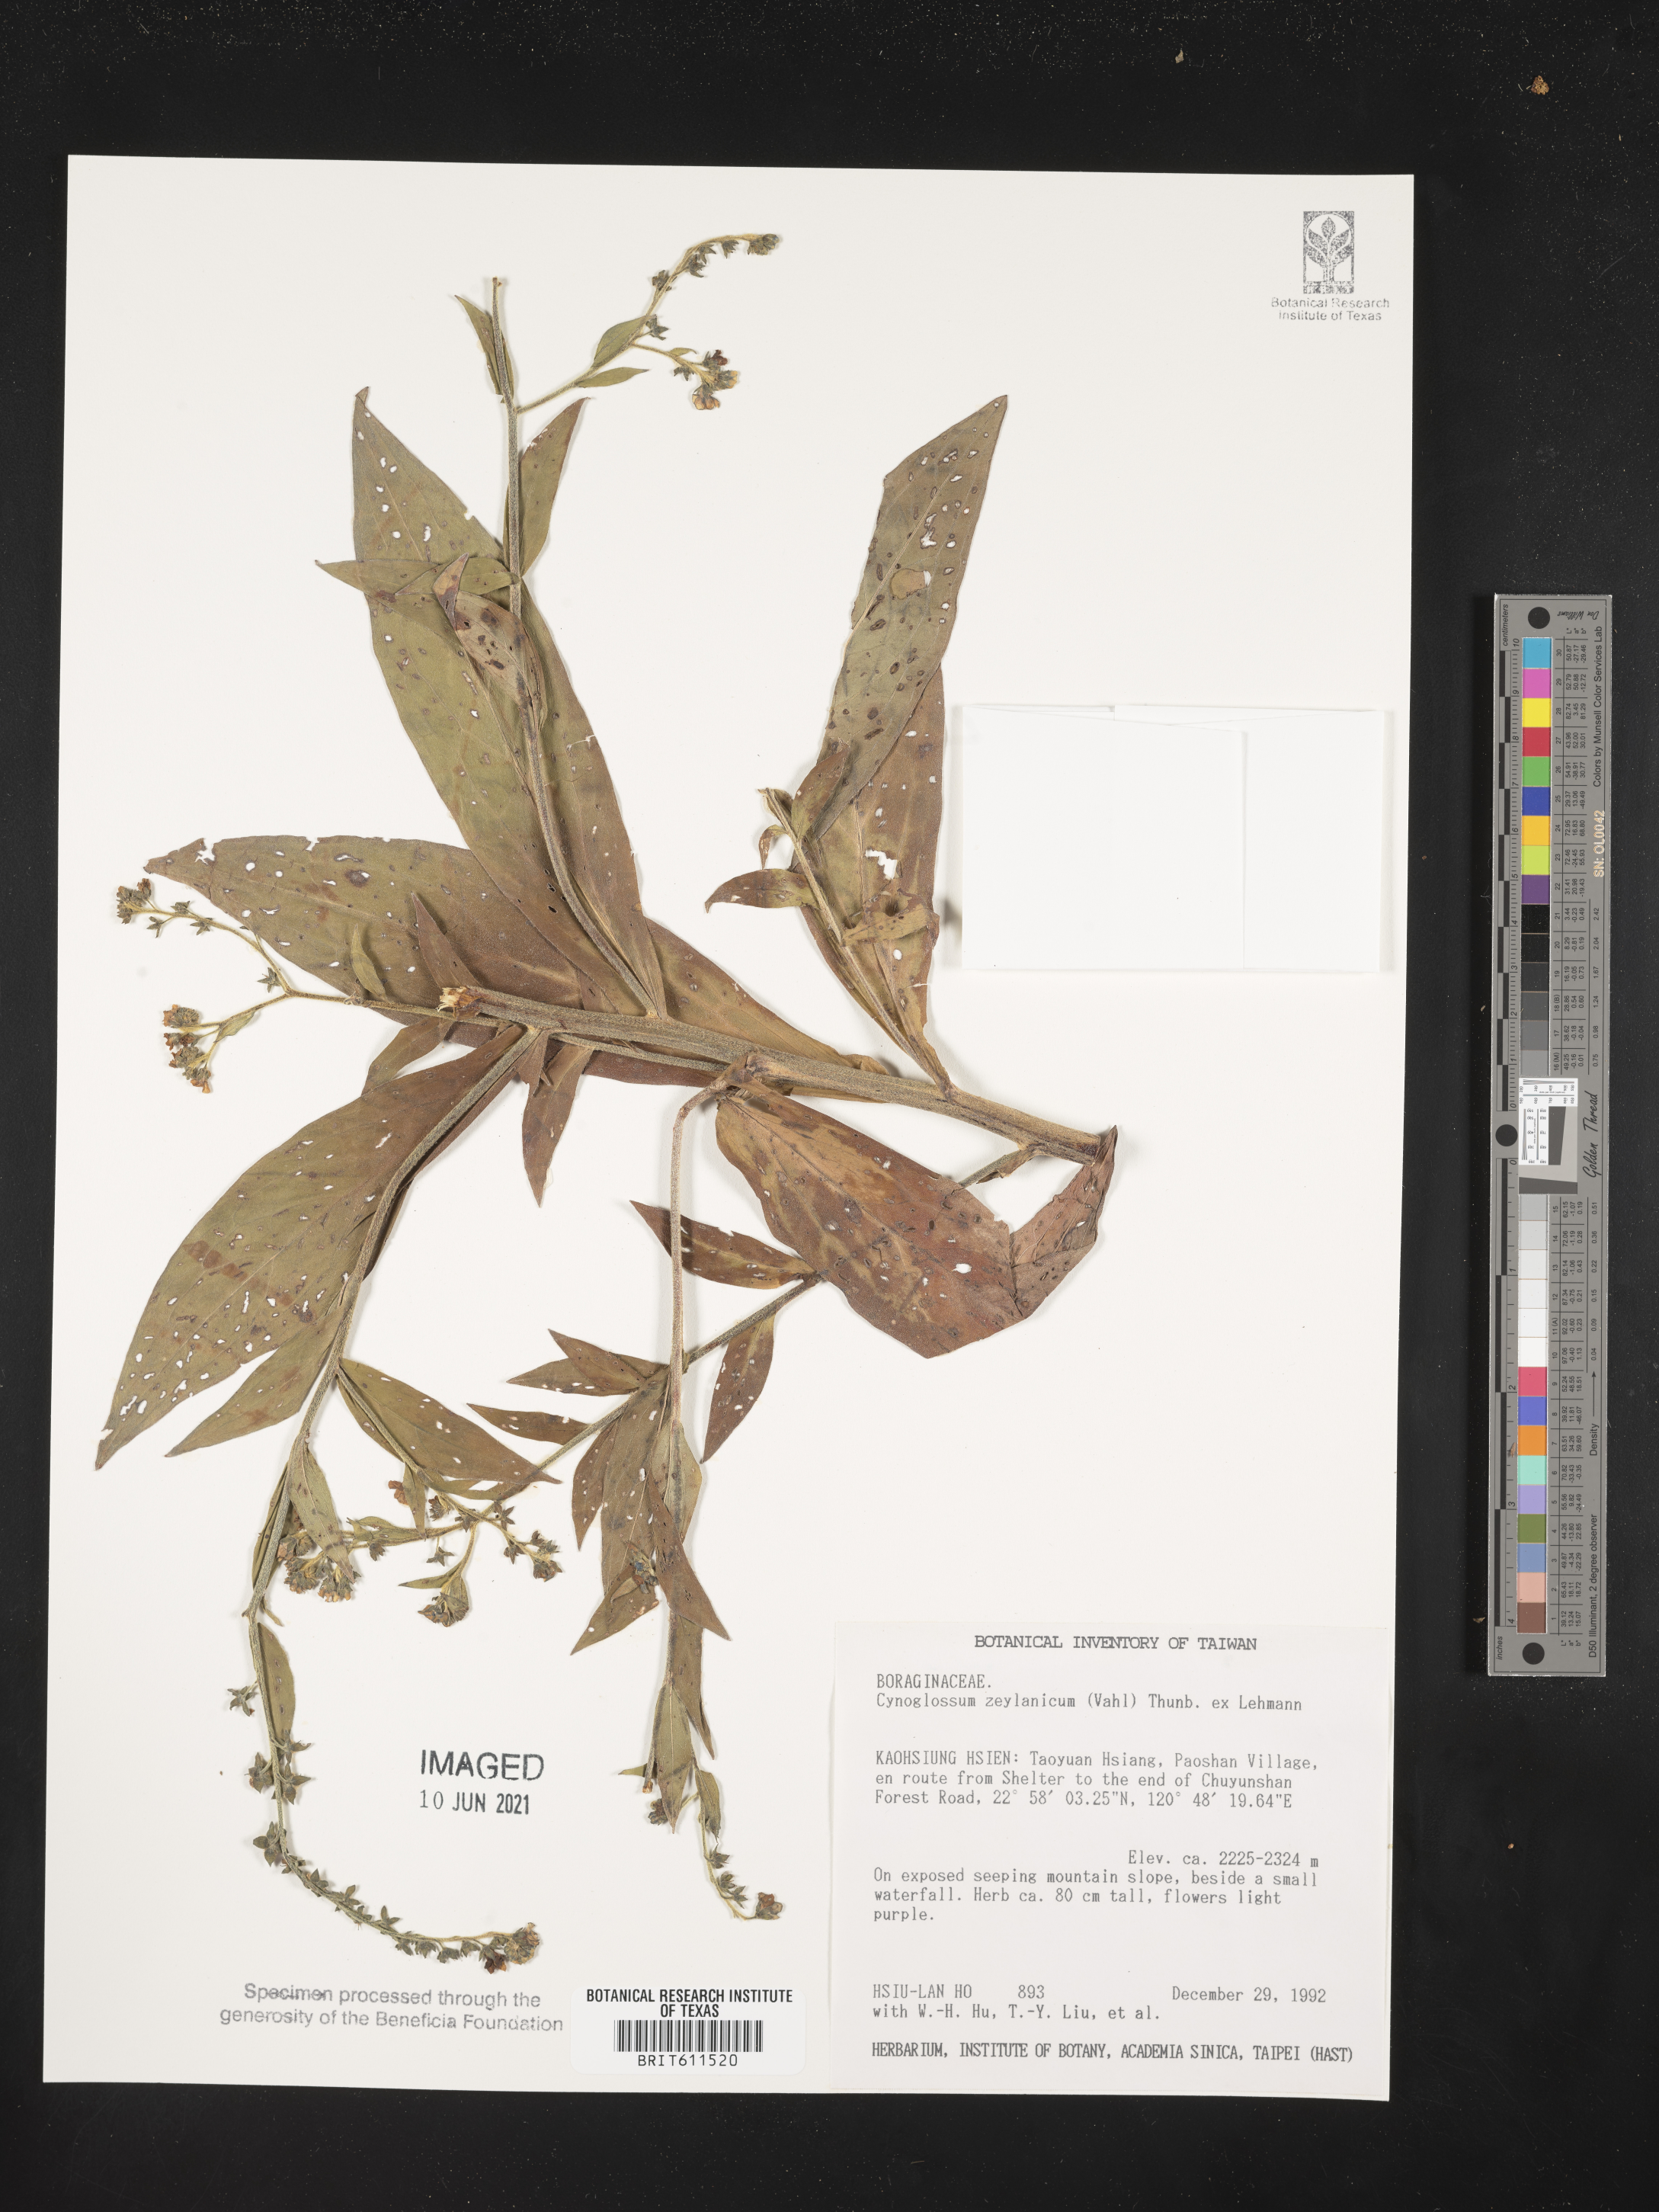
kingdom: Plantae
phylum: Tracheophyta
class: Magnoliopsida
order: Boraginales
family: Boraginaceae
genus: Cynoglossum
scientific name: Cynoglossum zeylanicum
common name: Ceylon hound's tongue
